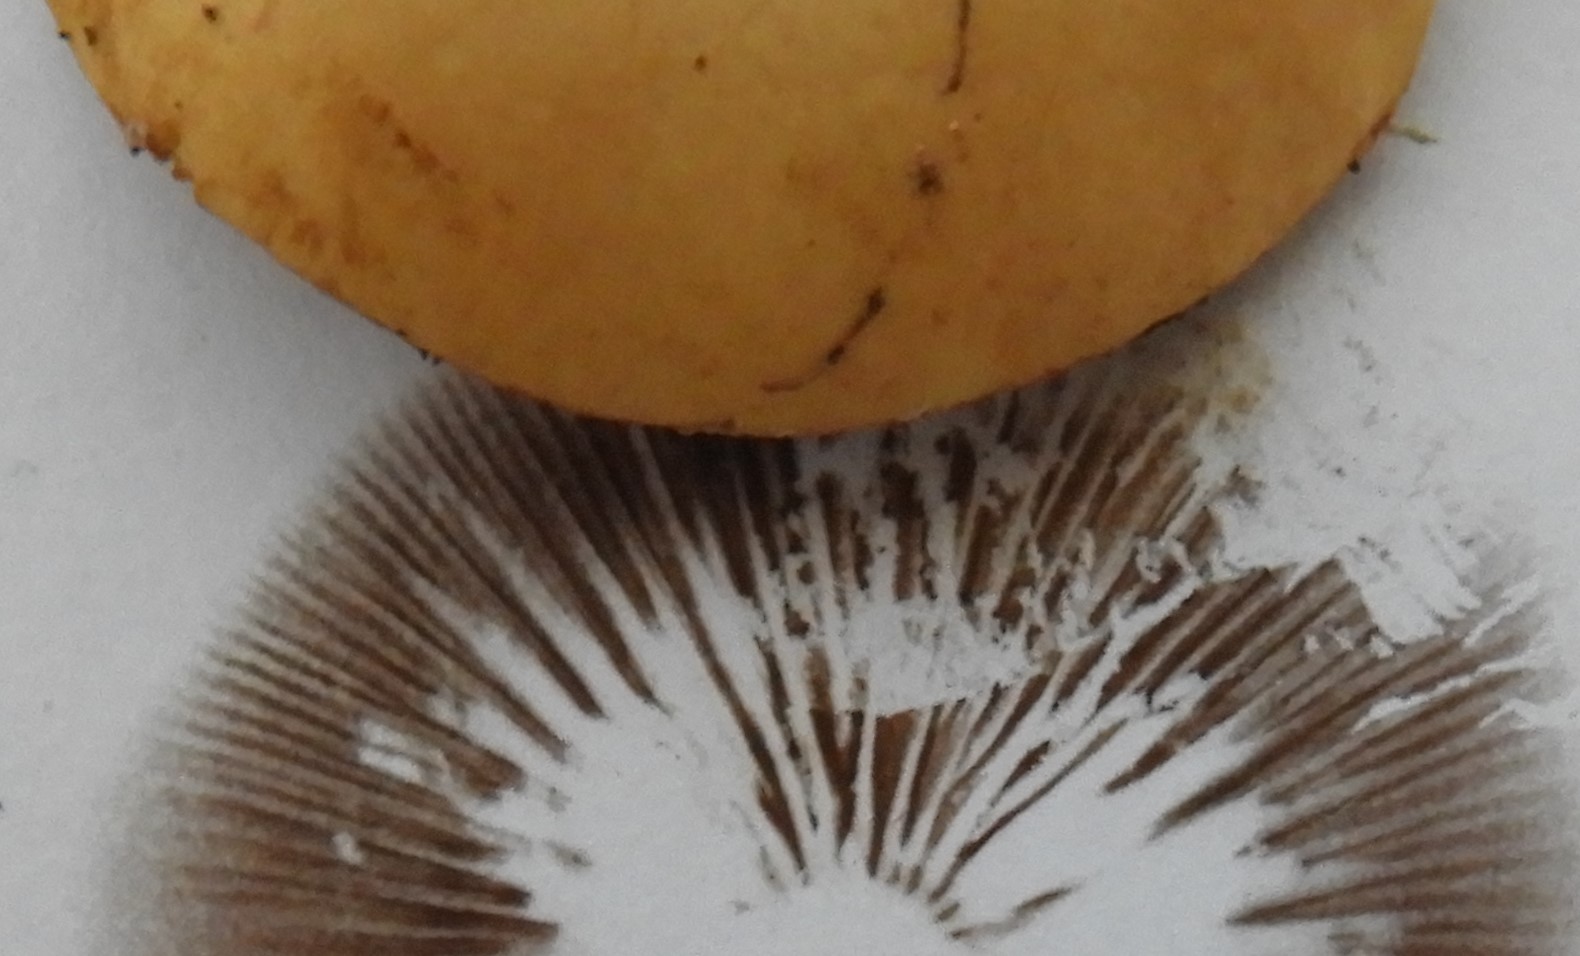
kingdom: Fungi
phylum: Basidiomycota
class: Agaricomycetes
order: Agaricales
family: Strophariaceae
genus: Agrocybe
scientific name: Agrocybe pediades
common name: almindelig agerhat
